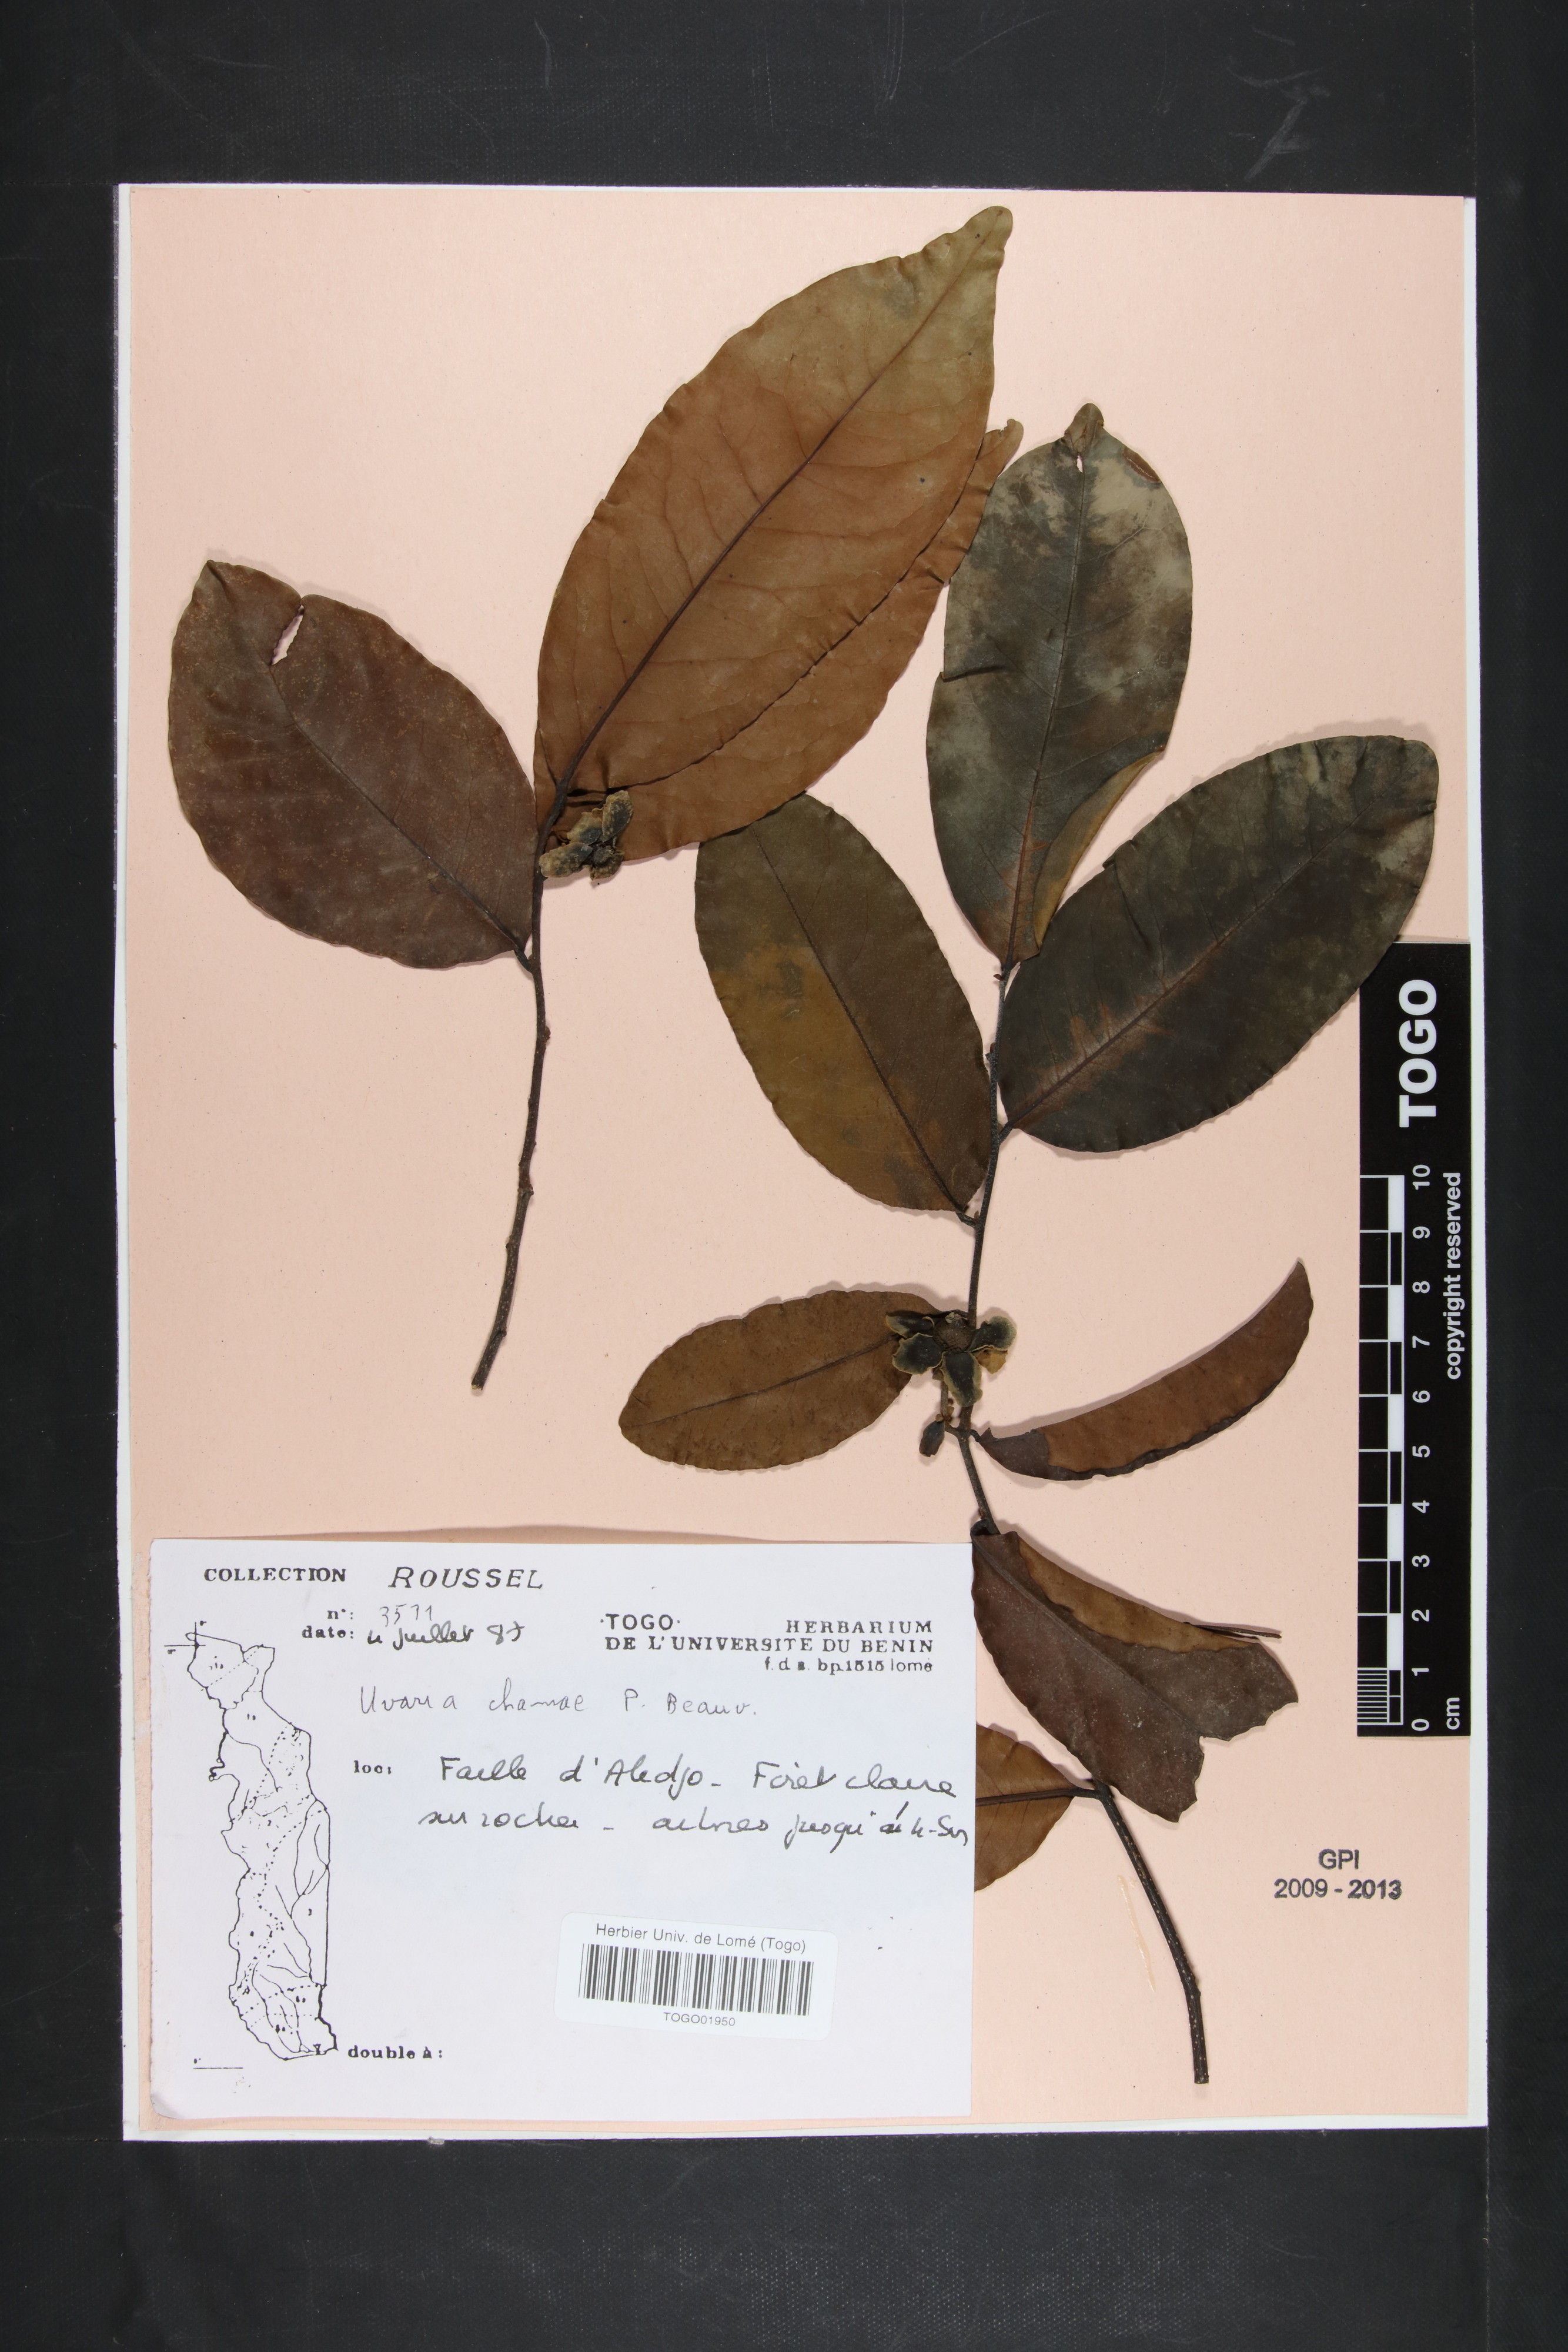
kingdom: Plantae
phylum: Tracheophyta
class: Magnoliopsida
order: Magnoliales
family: Annonaceae
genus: Uvaria
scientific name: Uvaria chamae
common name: Finger-root
